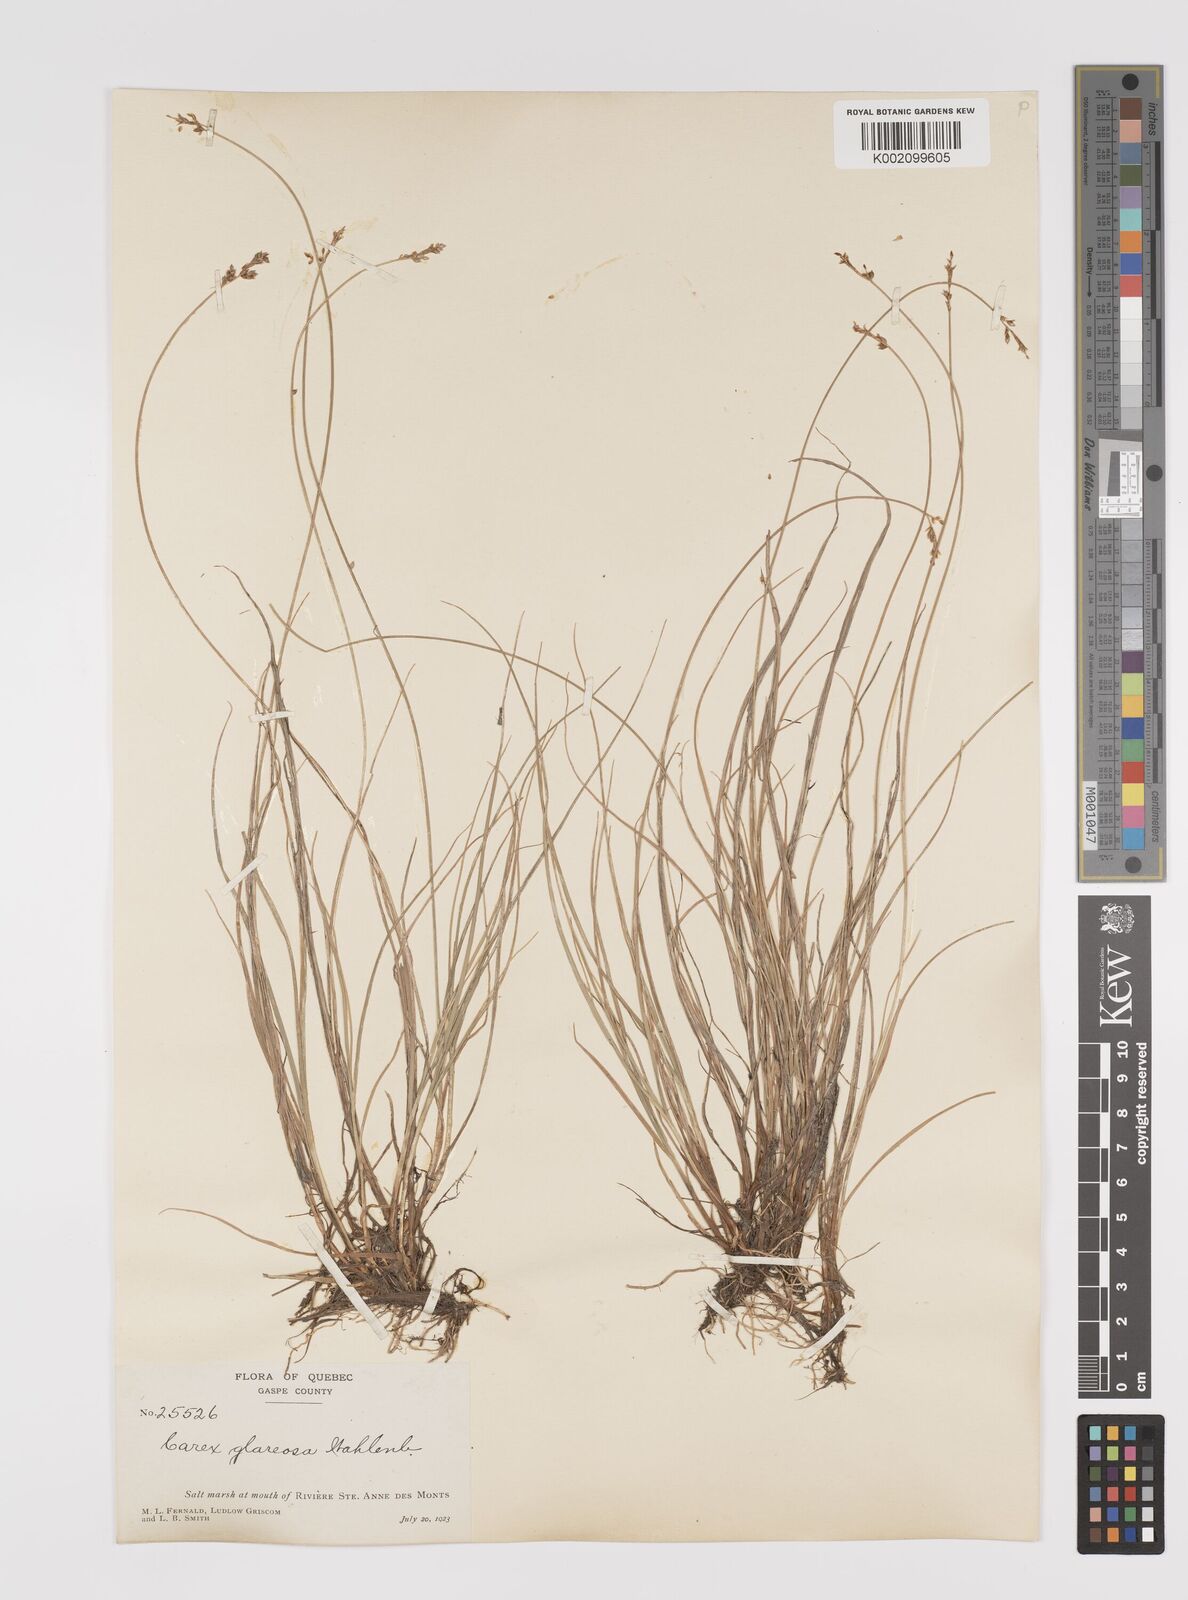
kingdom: Plantae
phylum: Tracheophyta
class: Liliopsida
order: Poales
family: Cyperaceae
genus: Carex
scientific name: Carex glareosa
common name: Clustered sedge
